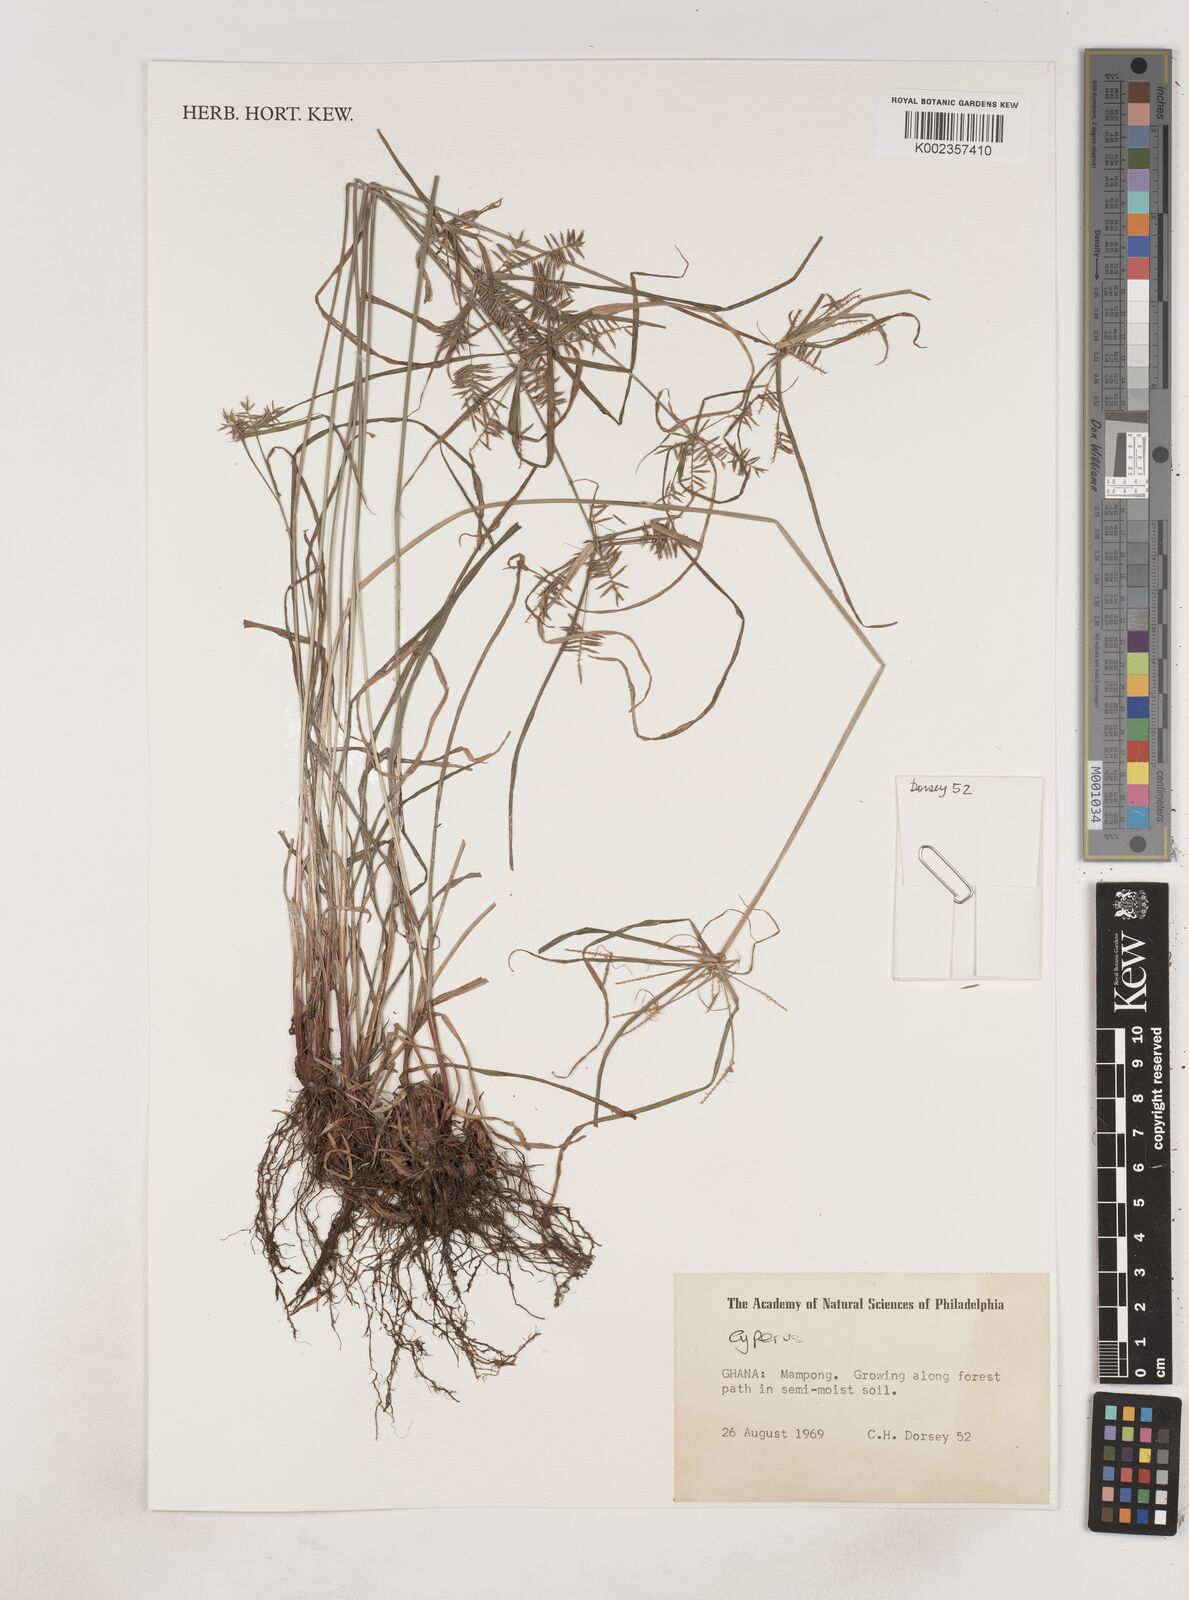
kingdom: Plantae
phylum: Tracheophyta
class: Liliopsida
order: Poales
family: Cyperaceae
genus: Cyperus
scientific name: Cyperus tenuis
